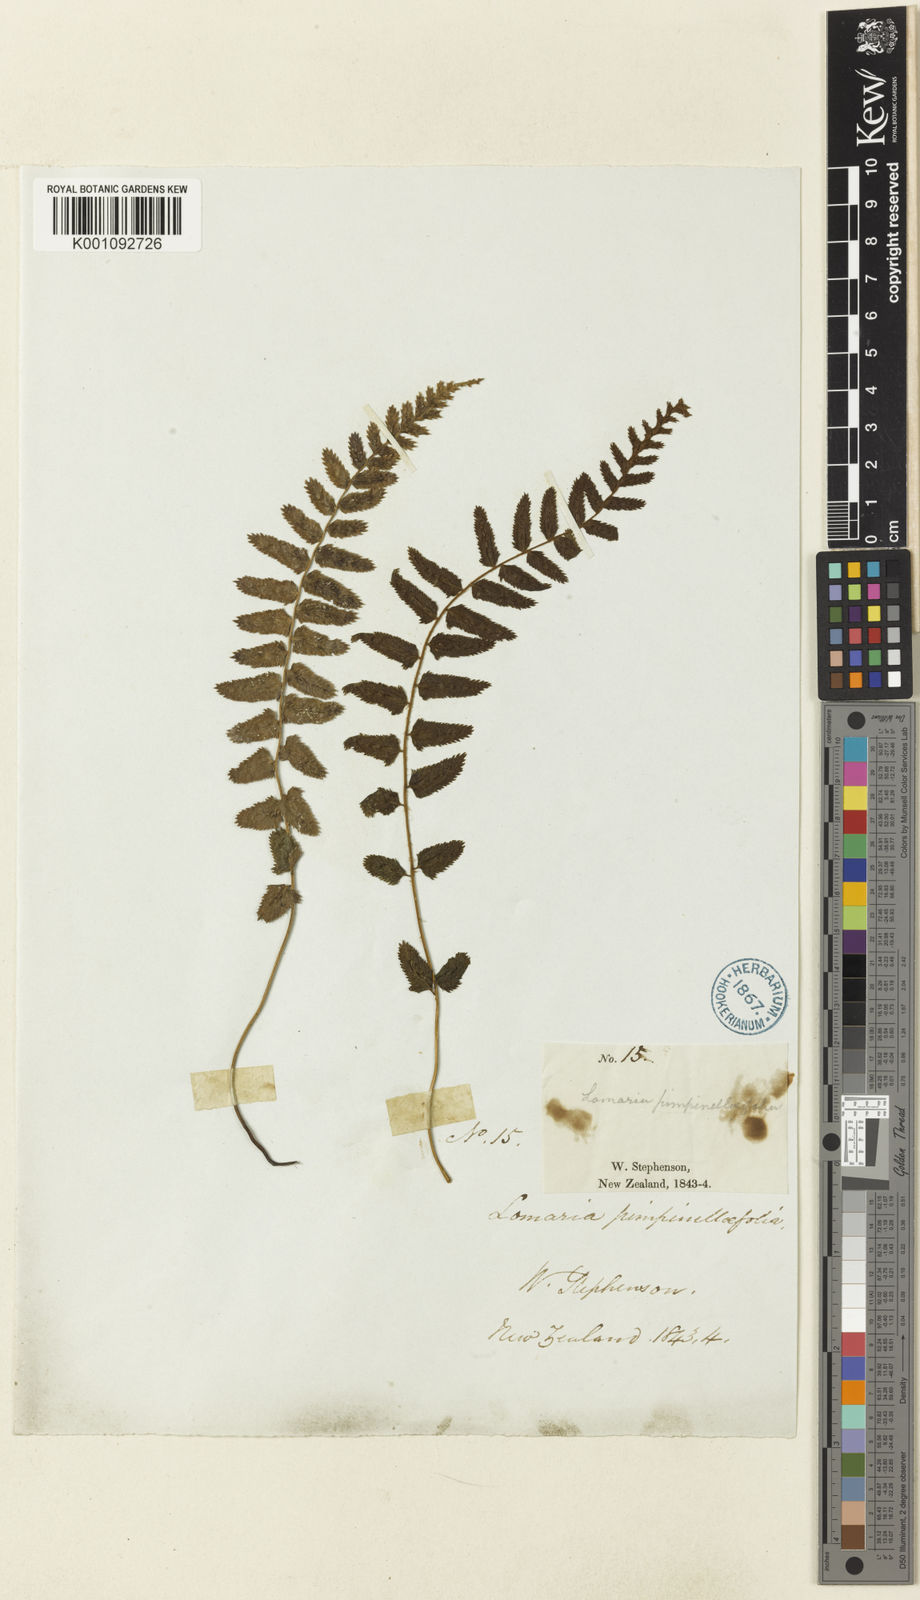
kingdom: Plantae
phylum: Tracheophyta
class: Polypodiopsida
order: Polypodiales
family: Blechnaceae
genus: Icarus
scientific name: Icarus filiformis
